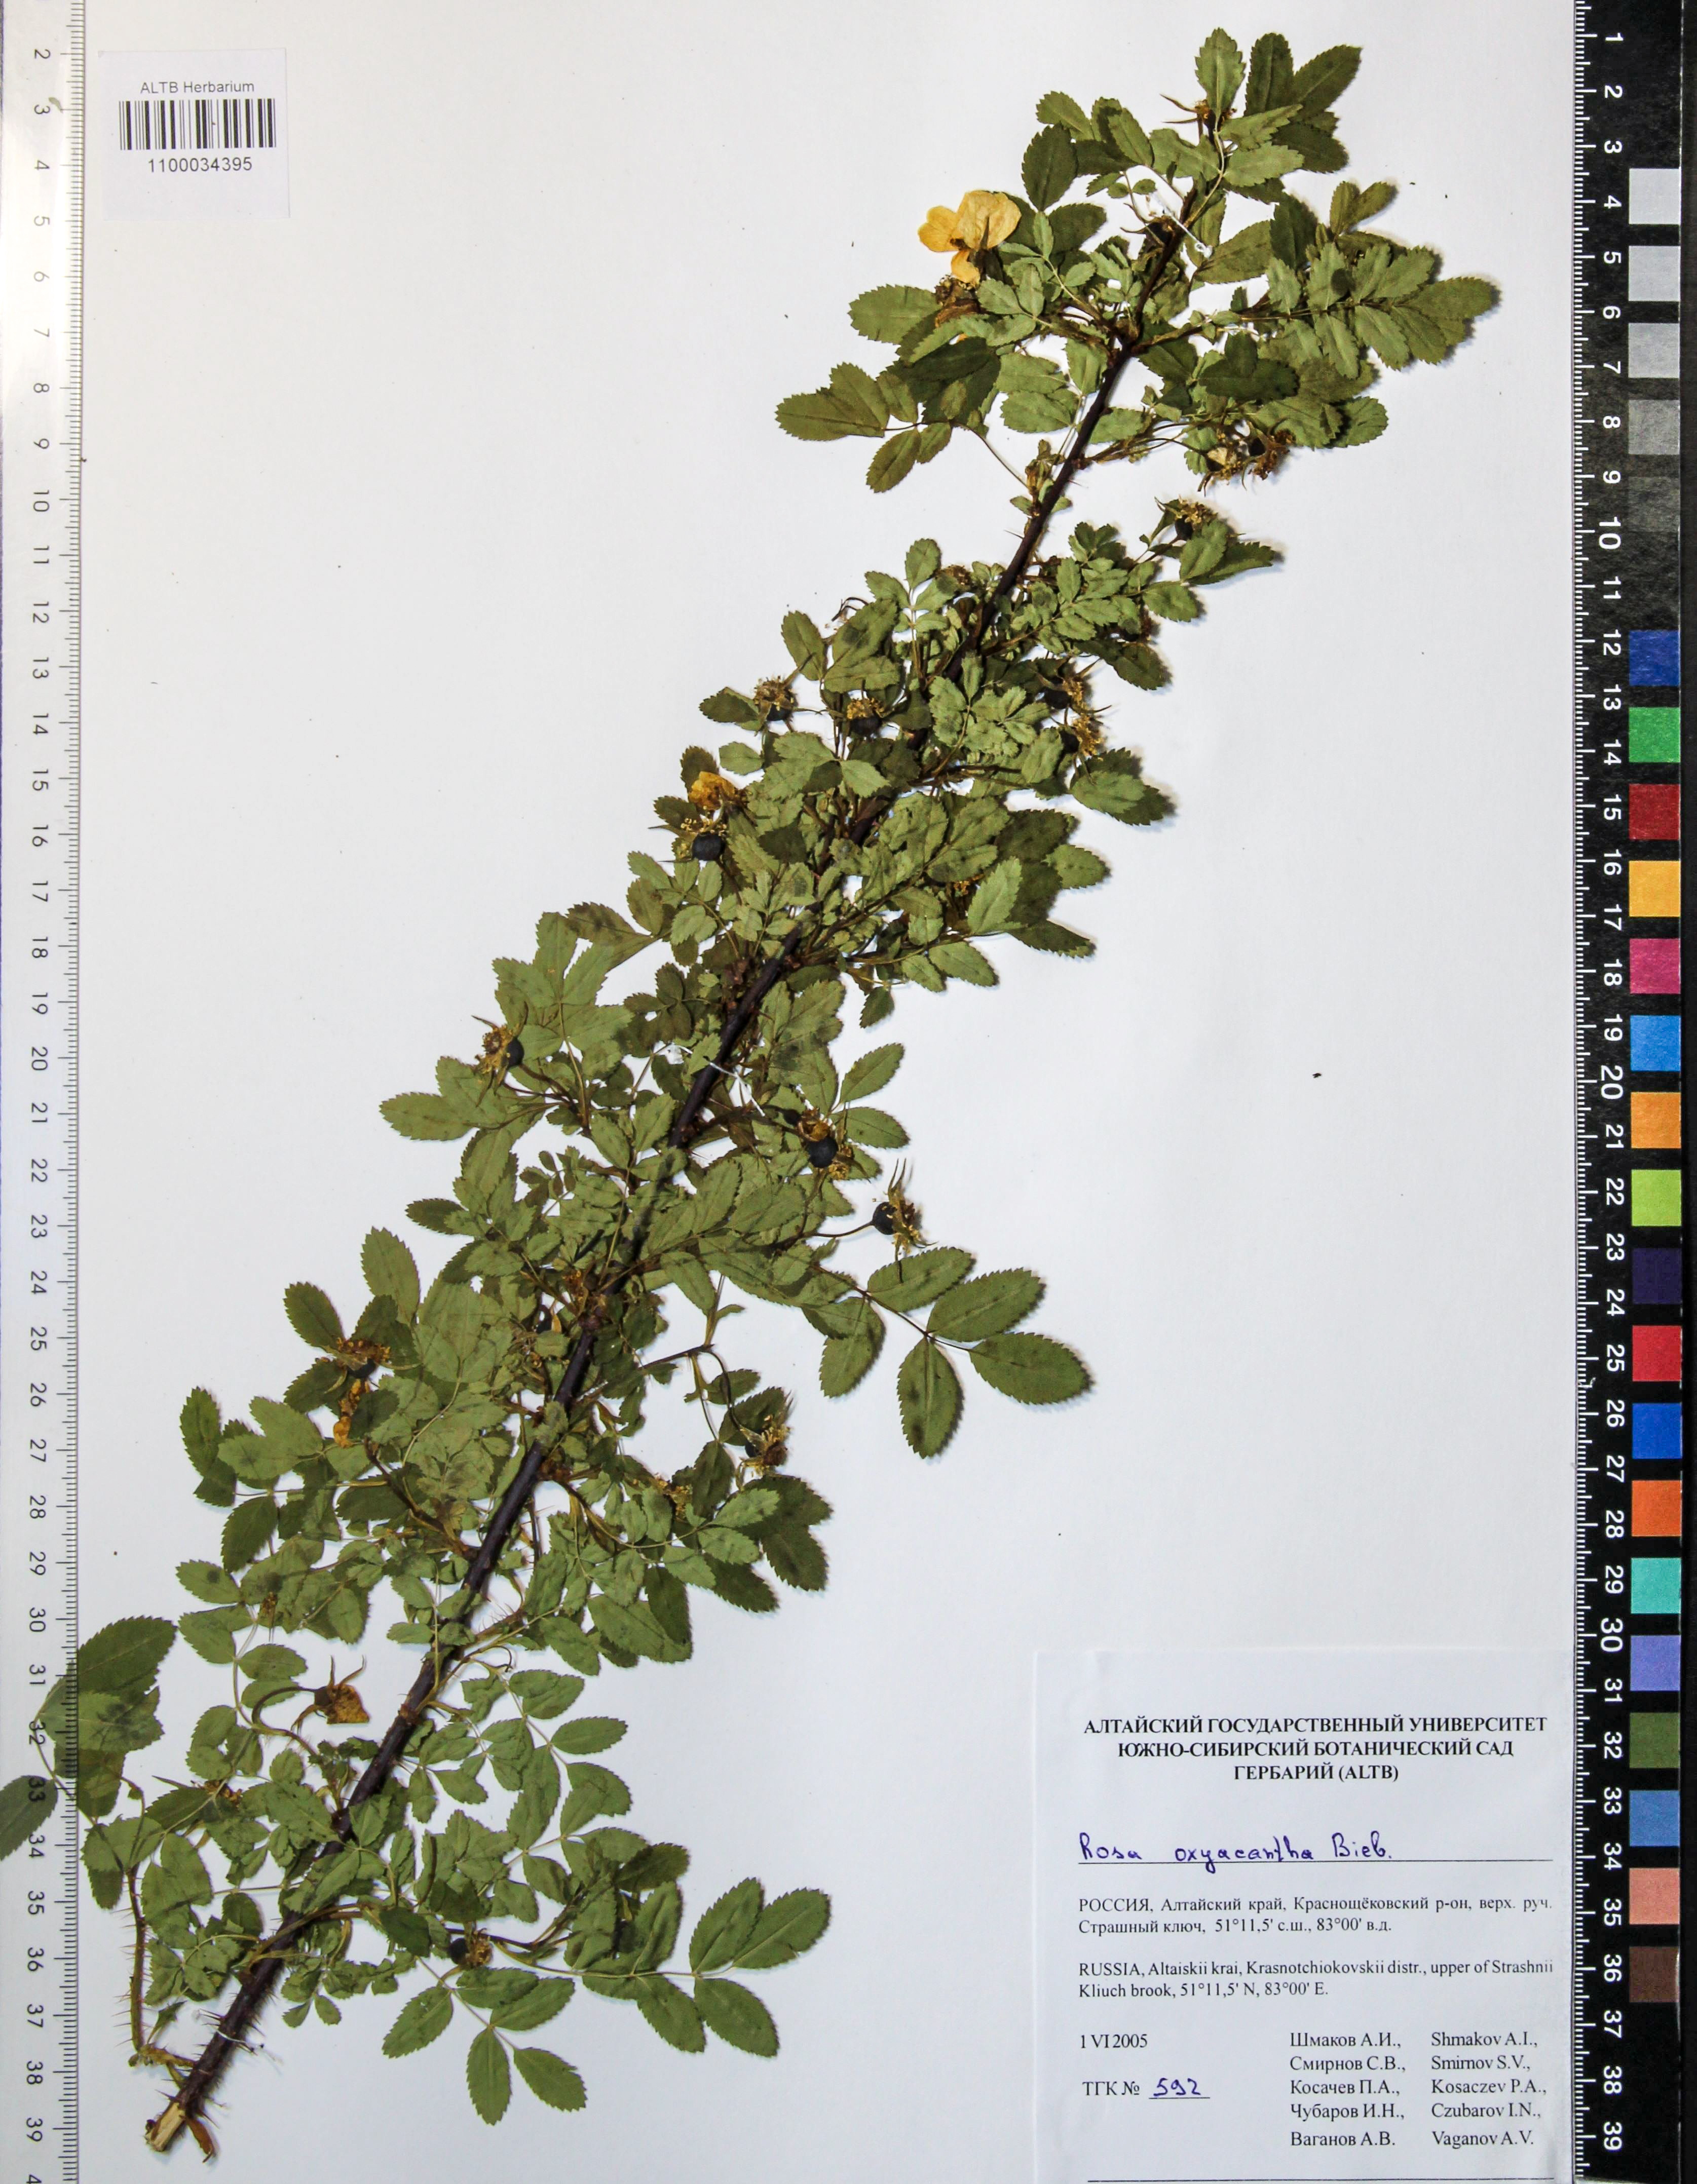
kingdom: Plantae
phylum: Tracheophyta
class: Magnoliopsida
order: Rosales
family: Rosaceae
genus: Rosa
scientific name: Rosa oxyacantha
